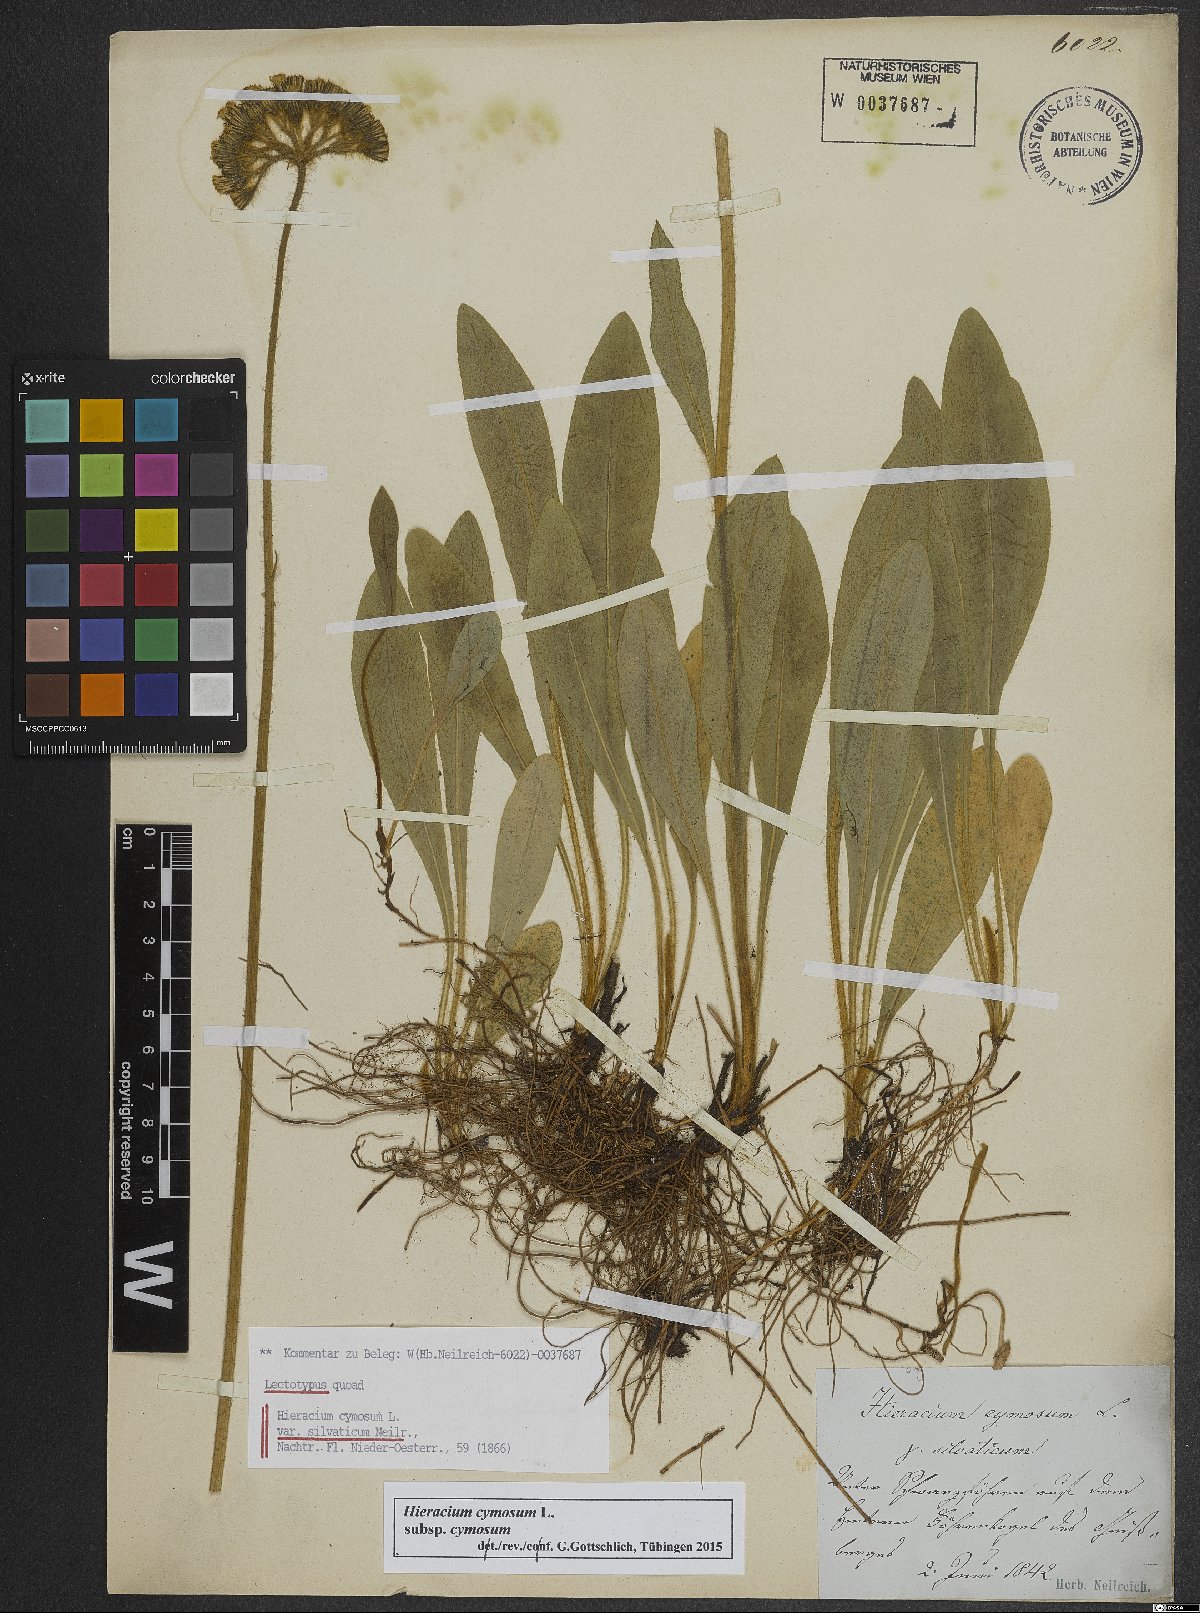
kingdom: Plantae
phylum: Tracheophyta
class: Magnoliopsida
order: Asterales
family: Asteraceae
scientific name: Asteraceae
